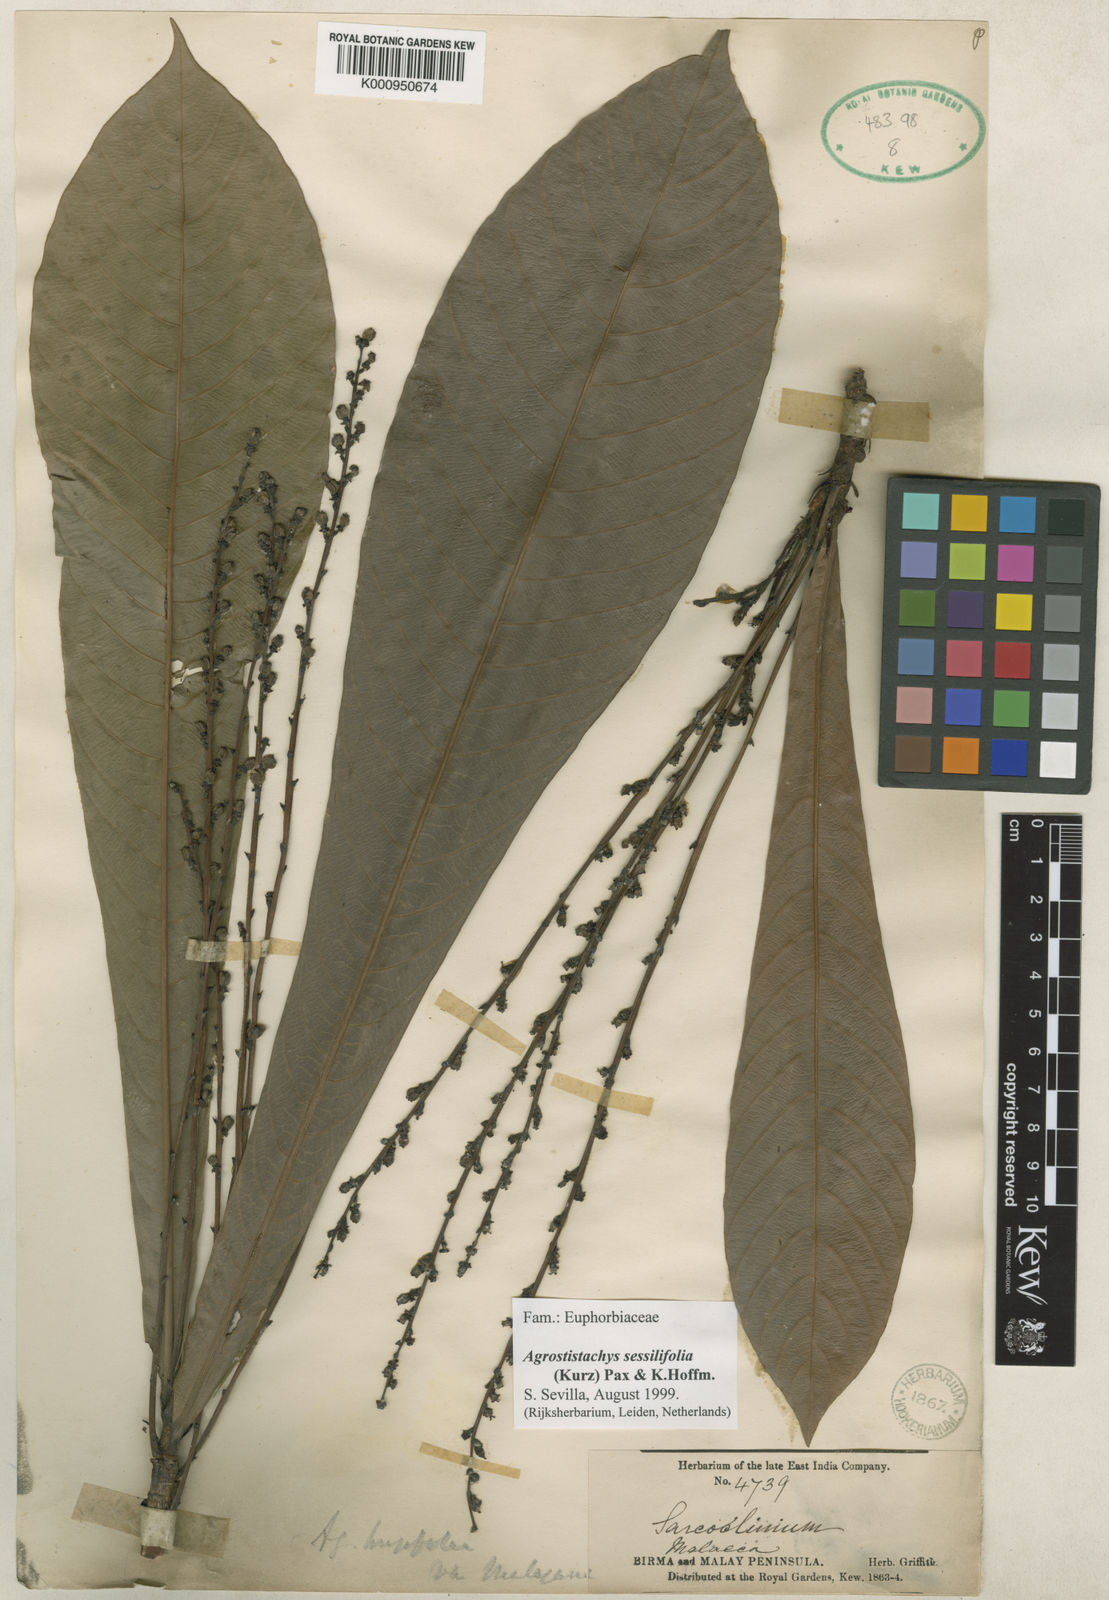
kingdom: Plantae
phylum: Tracheophyta
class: Magnoliopsida
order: Malpighiales
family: Euphorbiaceae
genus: Agrostistachys
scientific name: Agrostistachys sessilifolia
